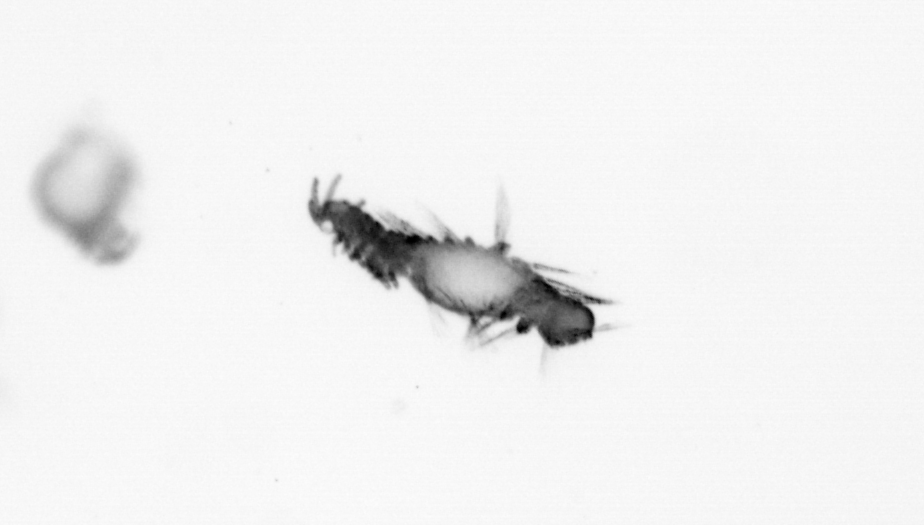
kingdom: Animalia
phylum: Annelida
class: Polychaeta
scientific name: Polychaeta
